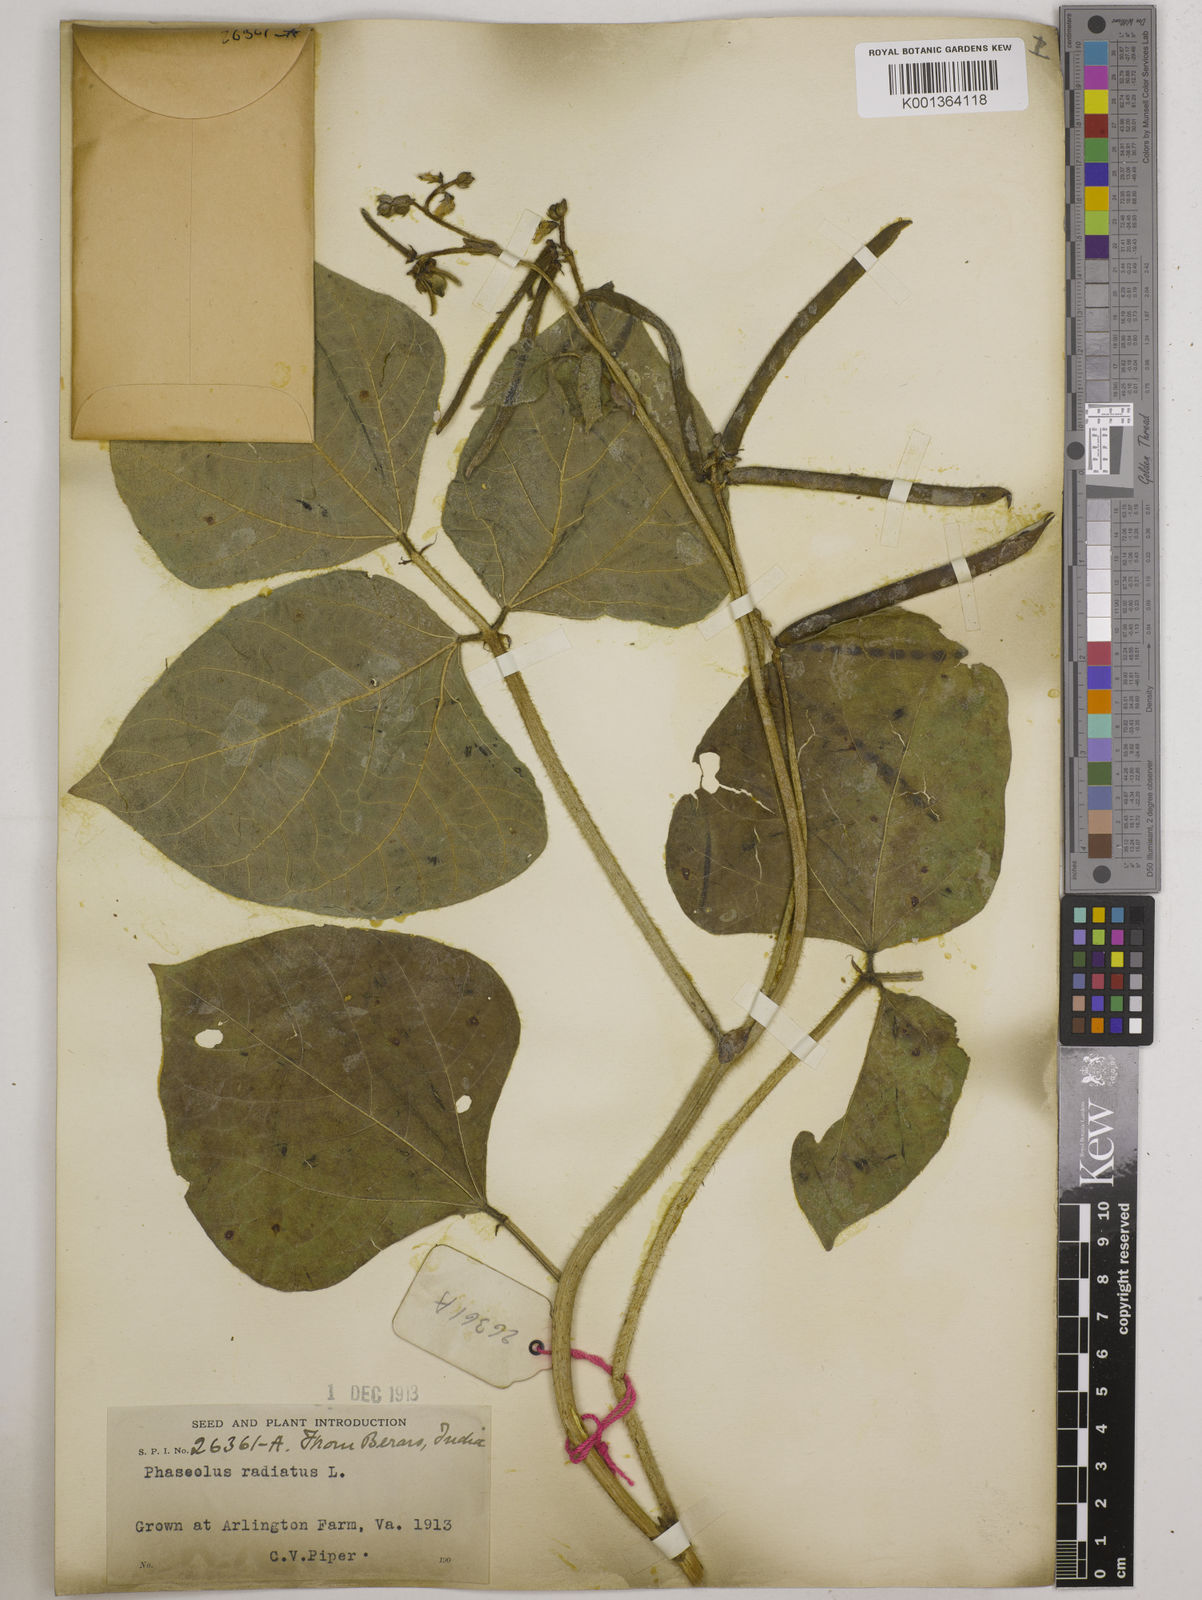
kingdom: Plantae
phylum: Tracheophyta
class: Magnoliopsida
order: Fabales
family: Fabaceae
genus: Vigna
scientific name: Vigna radiata
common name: Mung-bean
